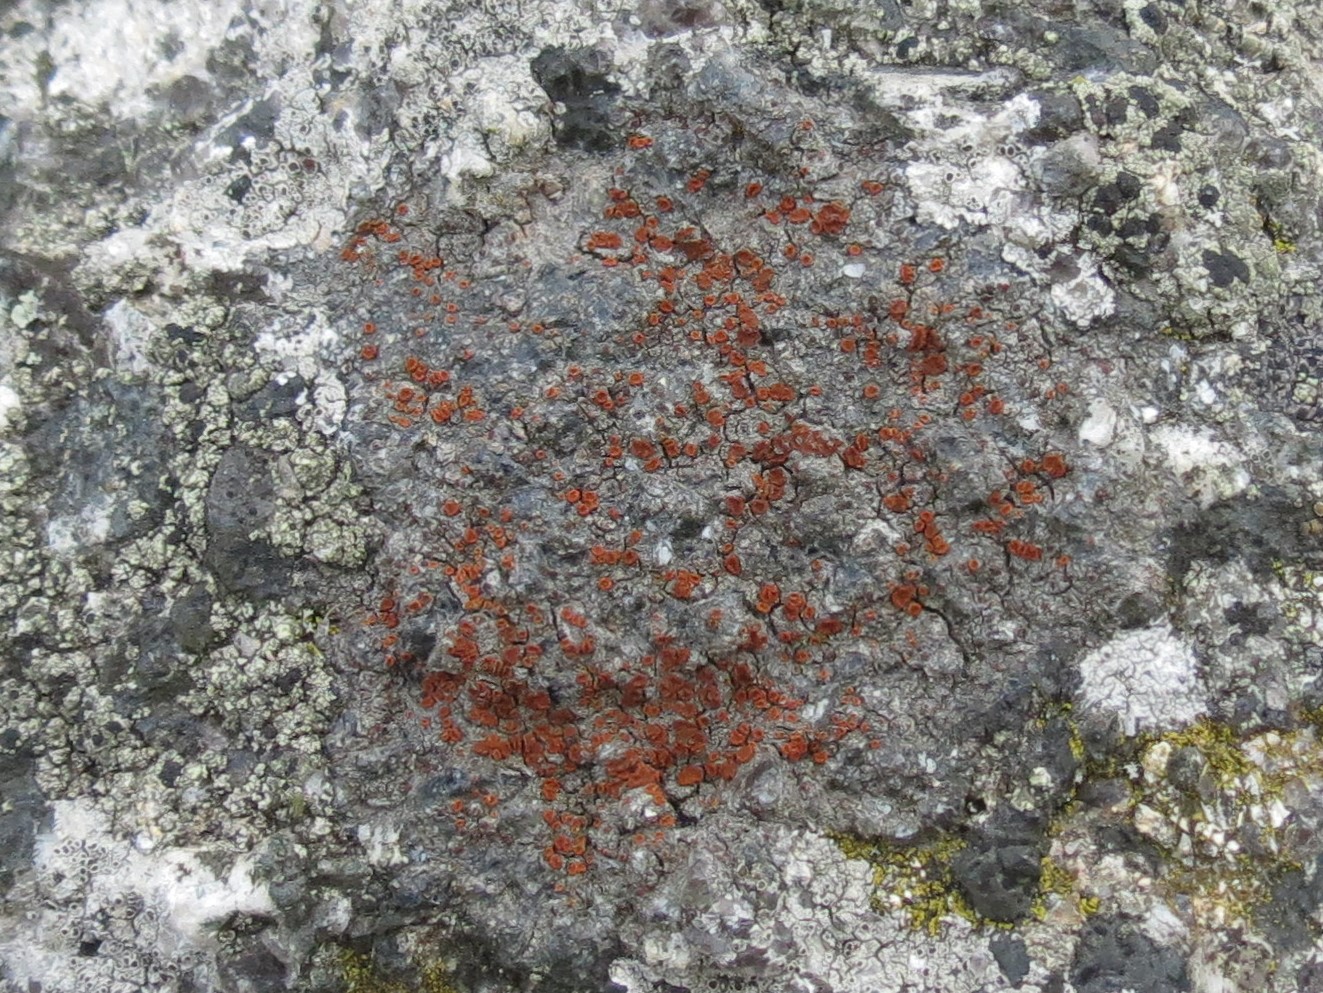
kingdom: Fungi
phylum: Ascomycota
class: Lecanoromycetes
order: Teloschistales
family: Teloschistaceae
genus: Blastenia
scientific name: Blastenia crenularia
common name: pyntelig orangelav
